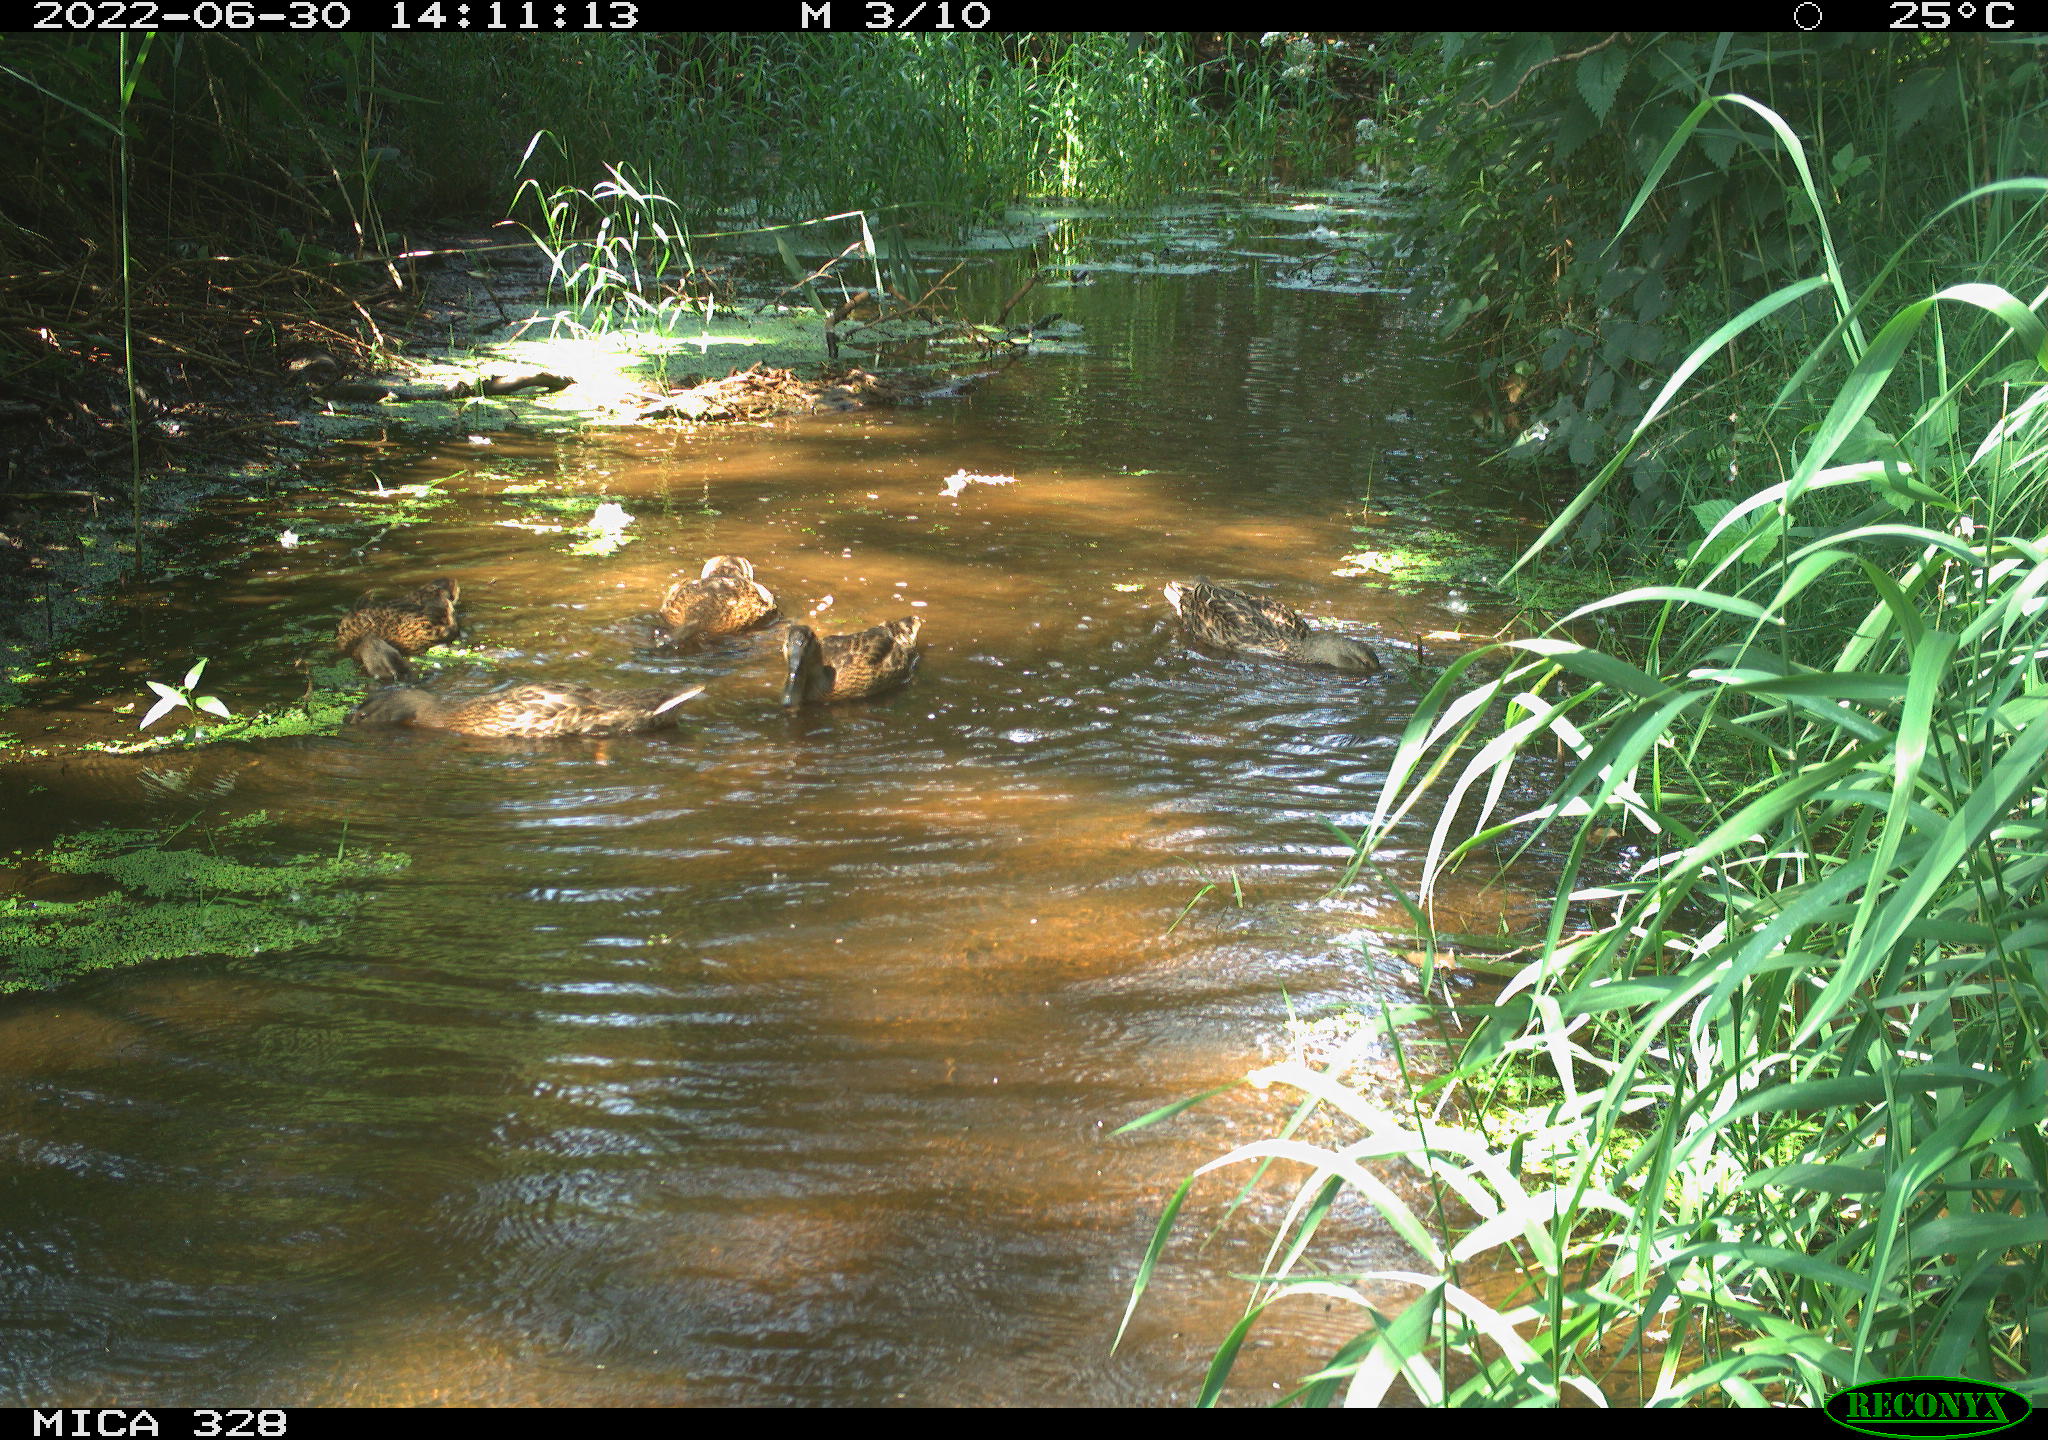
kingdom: Animalia
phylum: Chordata
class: Aves
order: Anseriformes
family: Anatidae
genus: Anas
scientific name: Anas platyrhynchos
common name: Mallard
